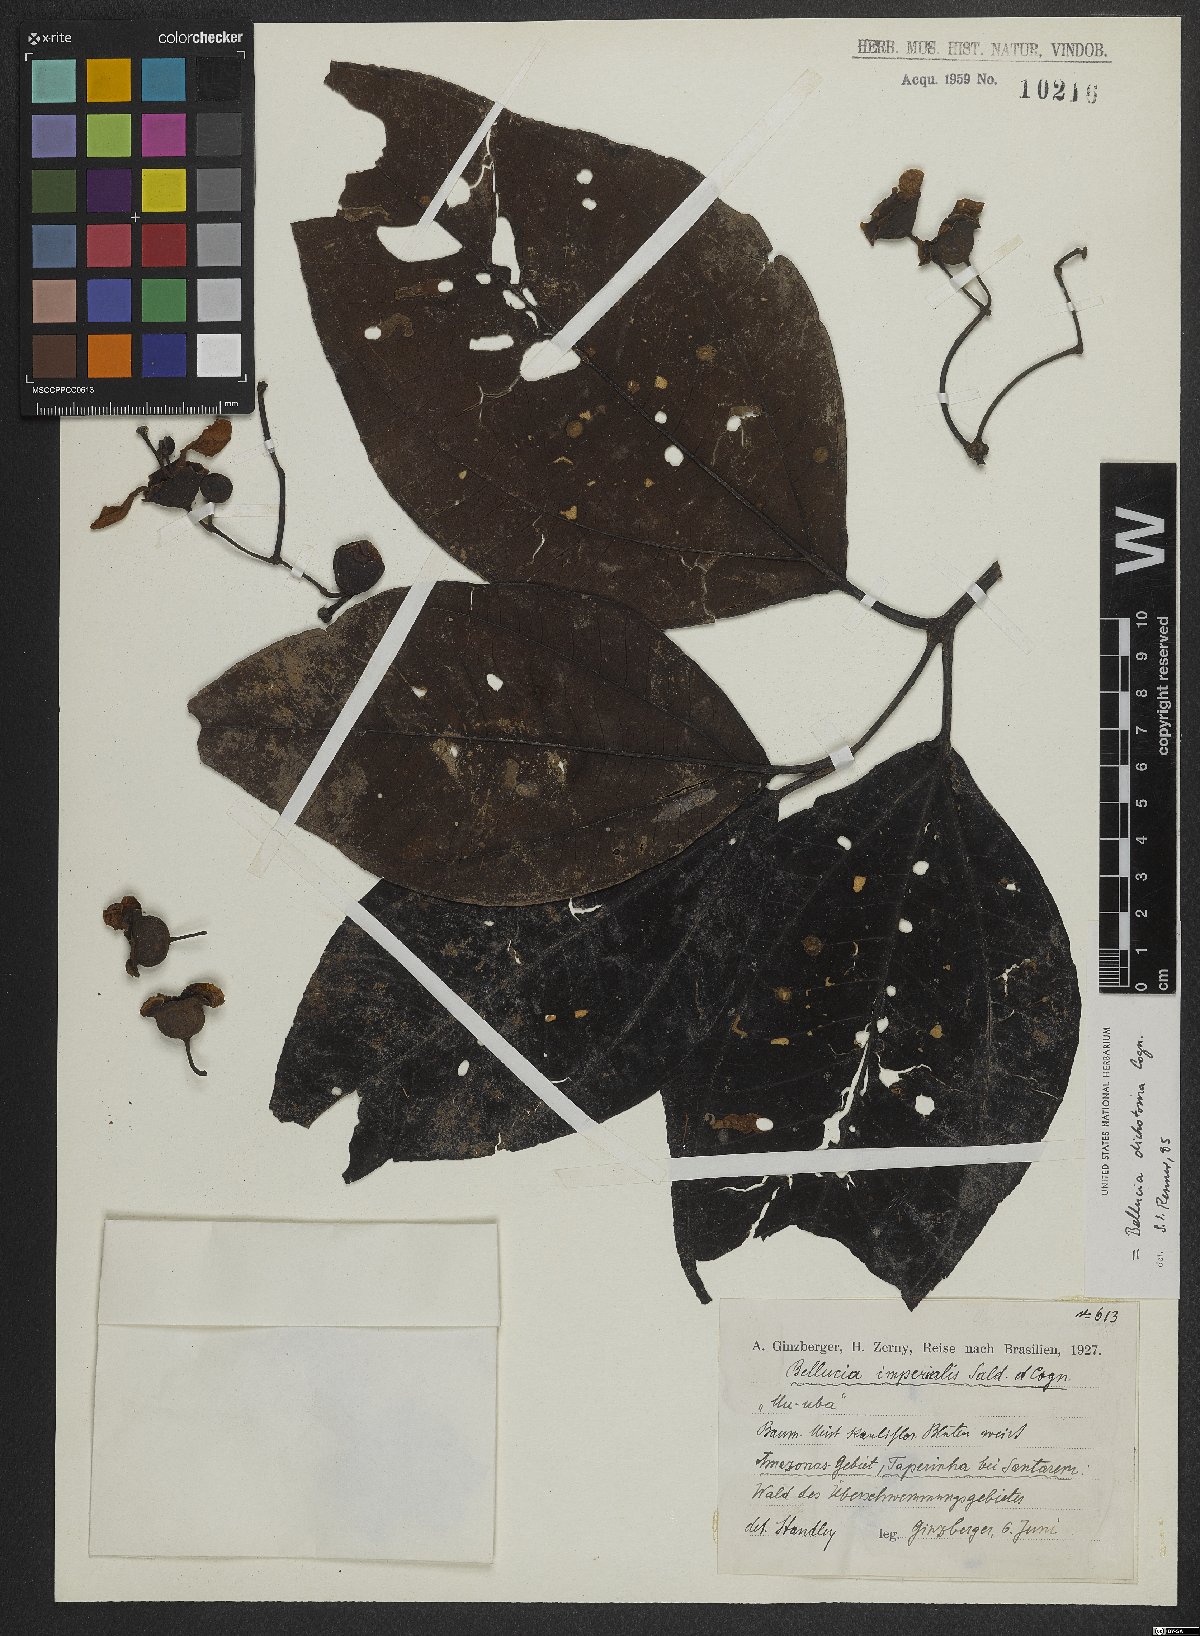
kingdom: Plantae
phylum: Tracheophyta
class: Magnoliopsida
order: Myrtales
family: Melastomataceae
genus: Bellucia
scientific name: Bellucia imperialis
